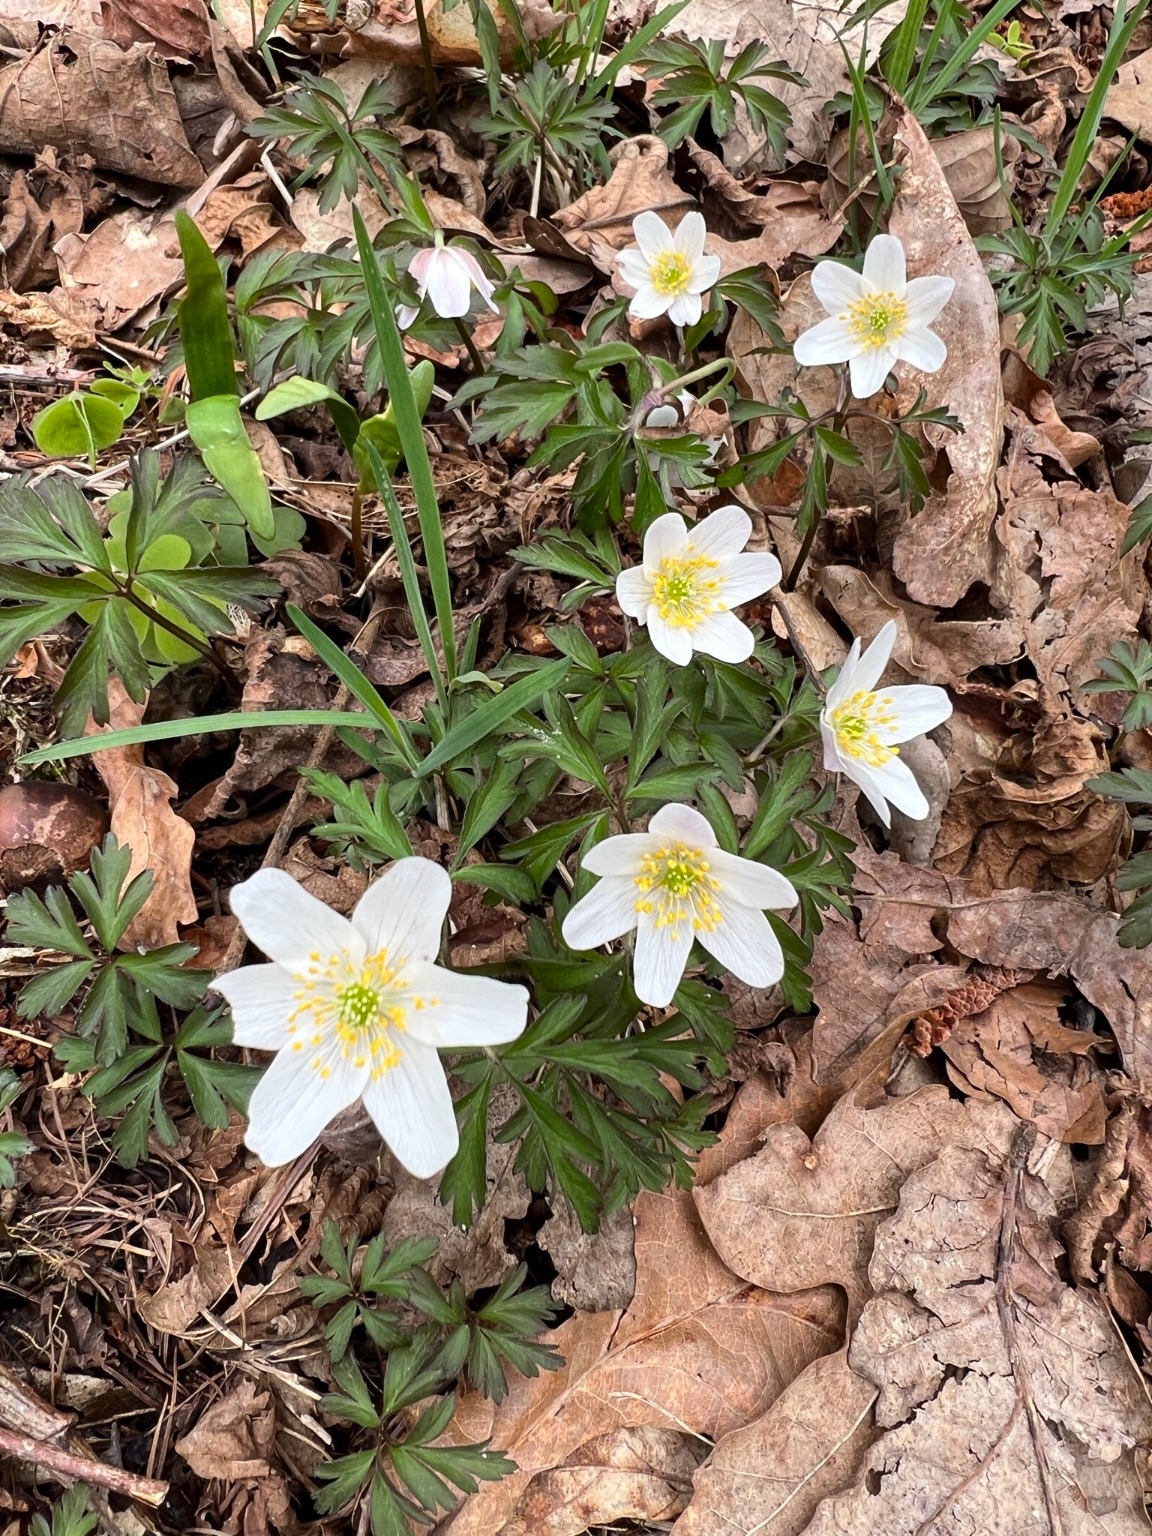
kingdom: Plantae
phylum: Tracheophyta
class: Magnoliopsida
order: Ranunculales
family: Ranunculaceae
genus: Anemone
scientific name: Anemone nemorosa
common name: Hvid anemone
